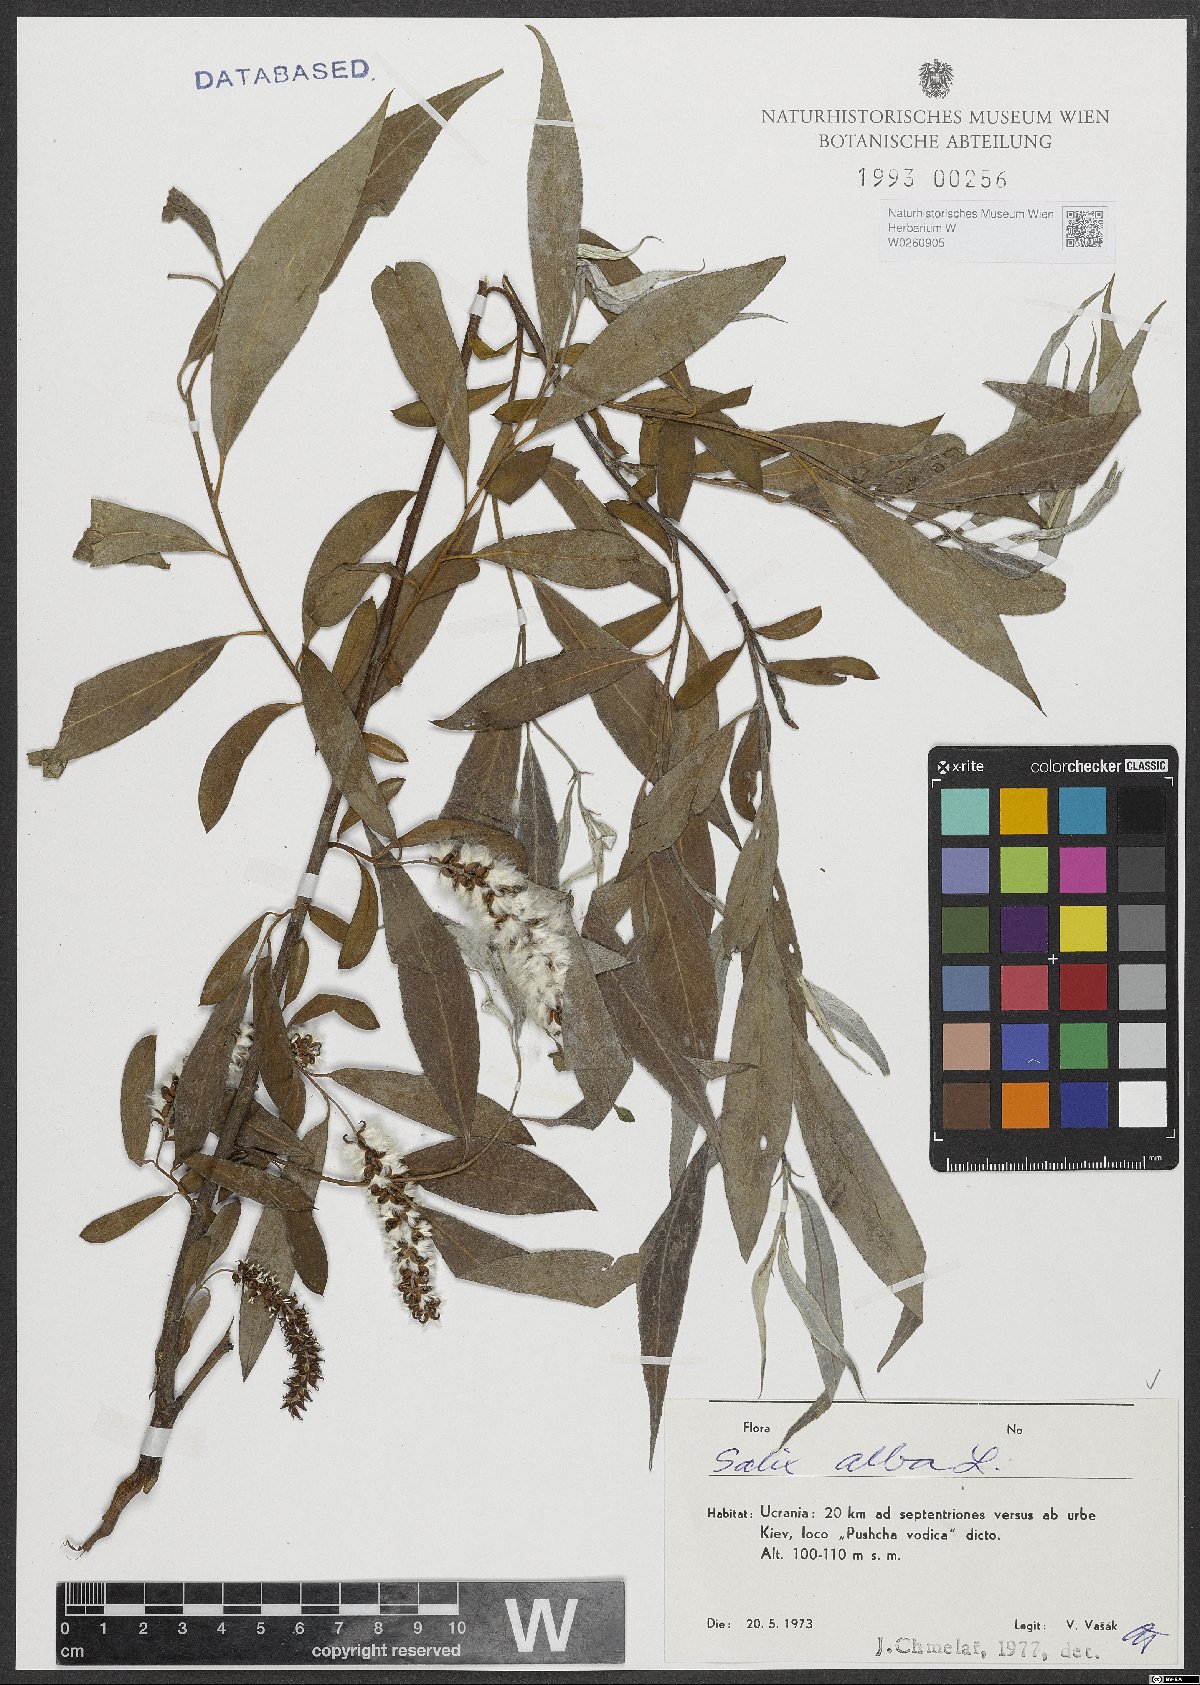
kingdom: Plantae
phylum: Tracheophyta
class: Magnoliopsida
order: Malpighiales
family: Salicaceae
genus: Salix
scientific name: Salix alba
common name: White willow
